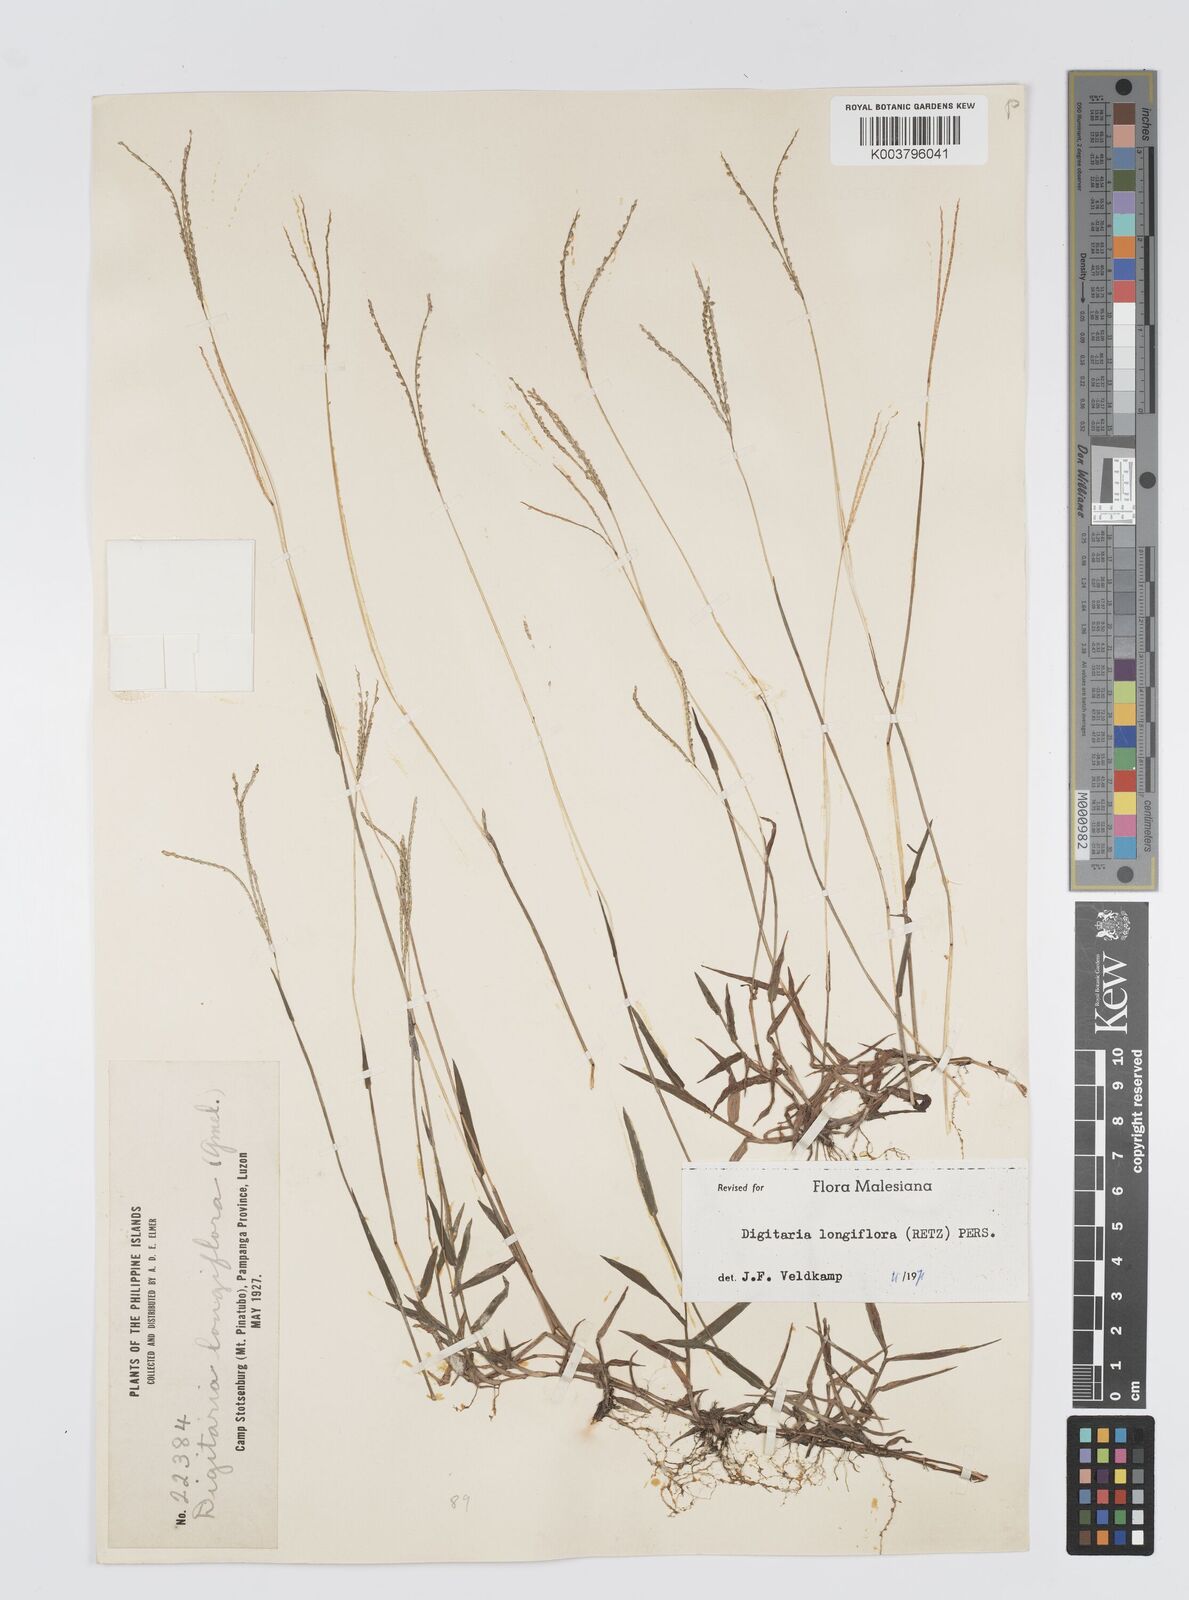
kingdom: Plantae
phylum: Tracheophyta
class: Liliopsida
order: Poales
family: Poaceae
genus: Digitaria
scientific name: Digitaria longiflora
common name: Wire crabgrass
